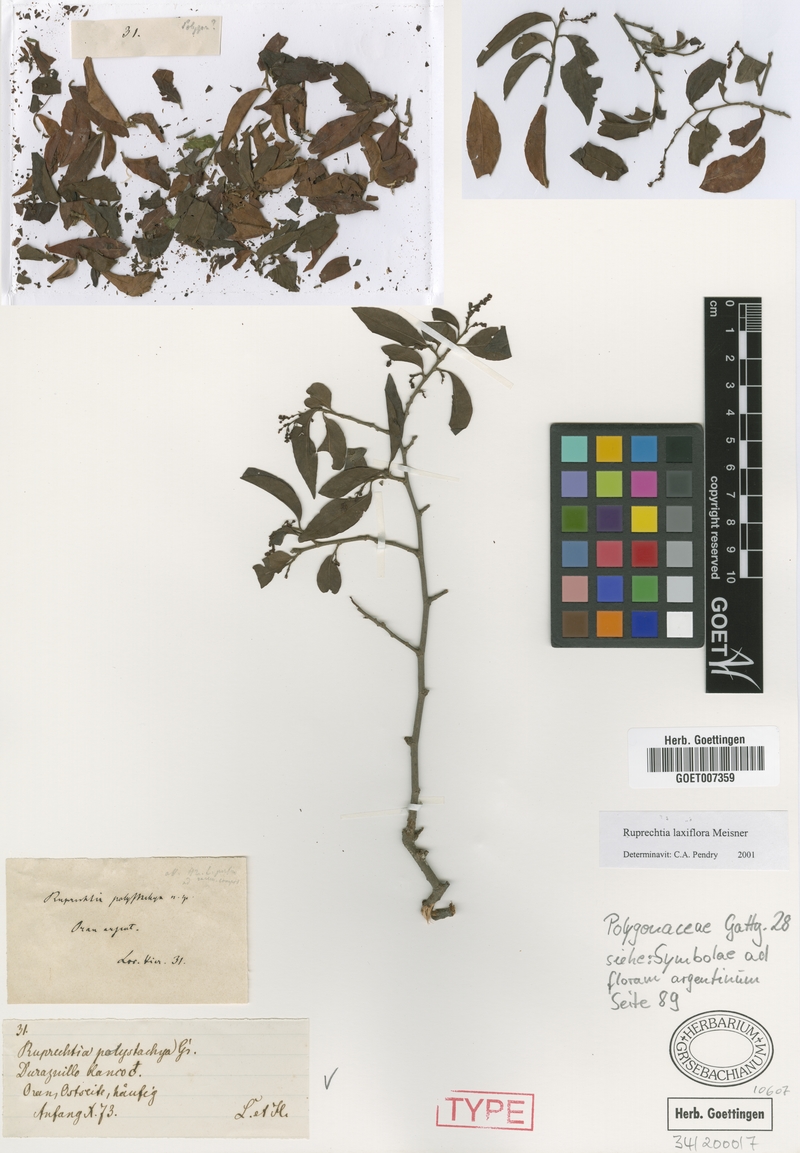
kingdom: Plantae
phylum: Tracheophyta
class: Magnoliopsida
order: Caryophyllales
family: Polygonaceae
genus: Ruprechtia
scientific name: Ruprechtia laxiflora
